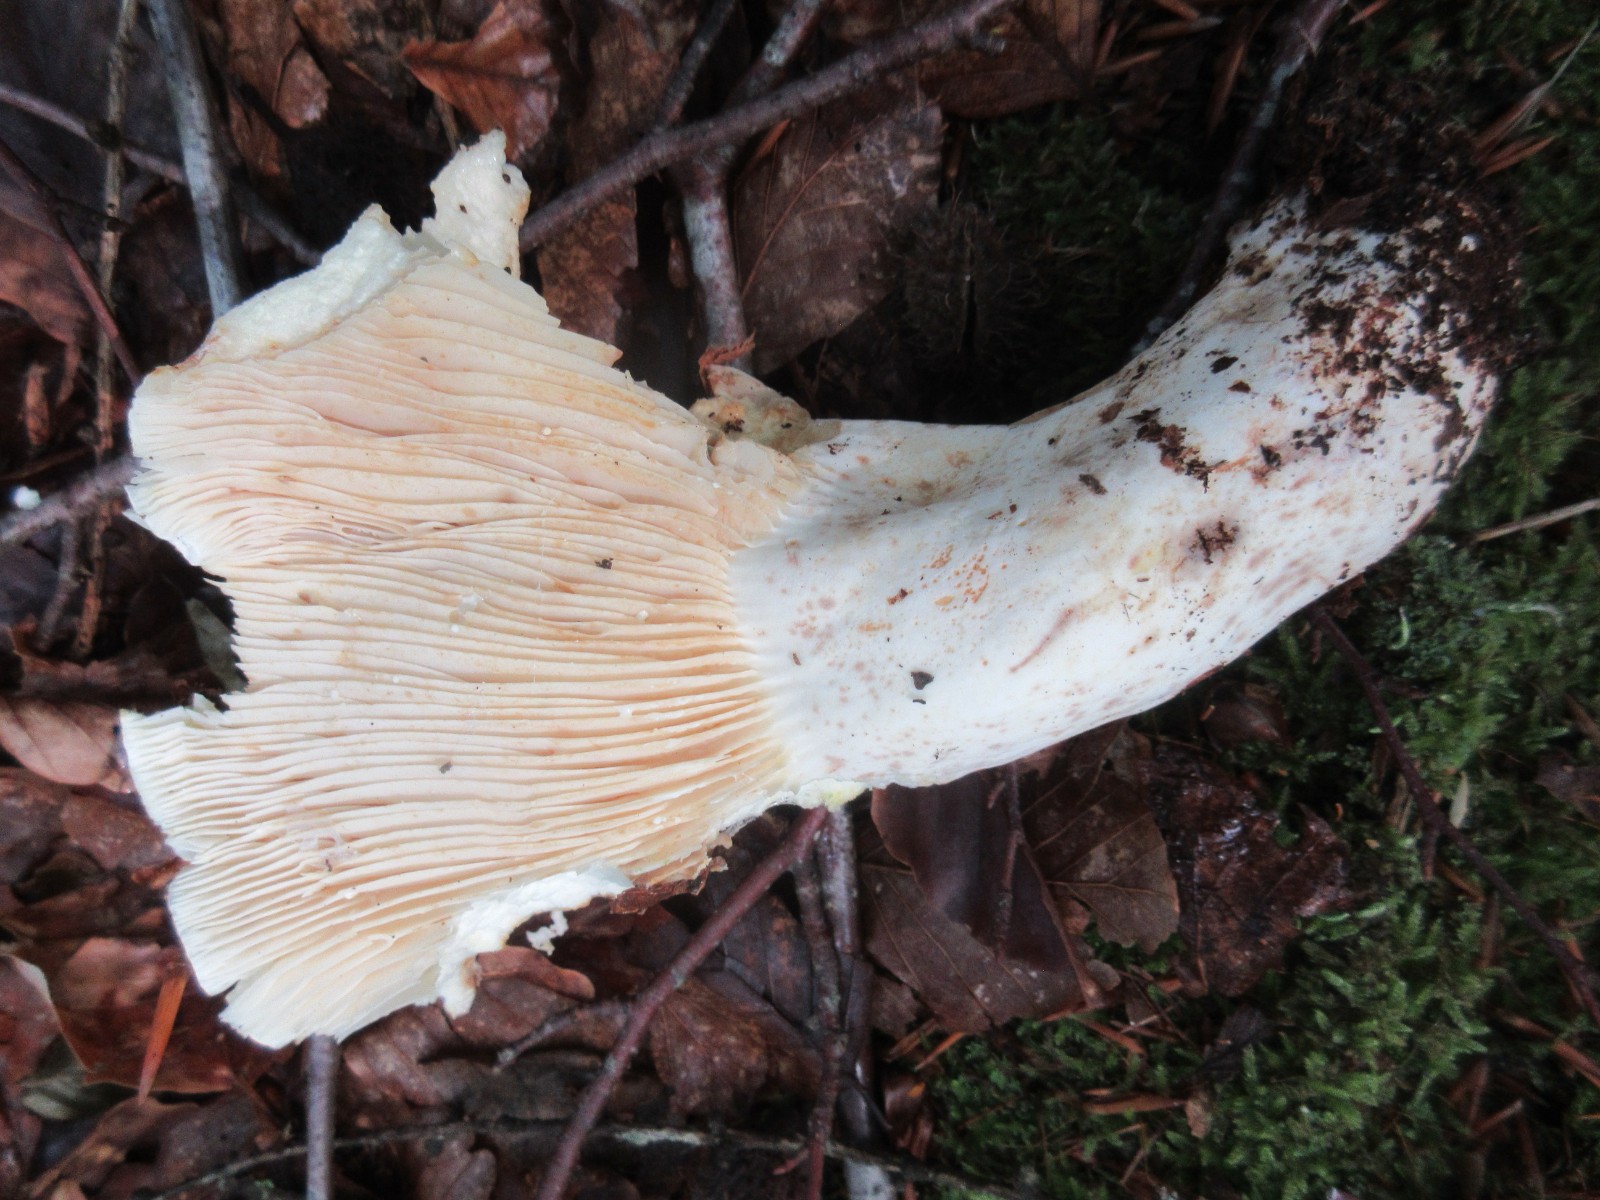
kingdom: Fungi
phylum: Basidiomycota
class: Agaricomycetes
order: Russulales
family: Russulaceae
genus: Lactifluus
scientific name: Lactifluus bertillonii
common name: blødfiltet mælkehat
